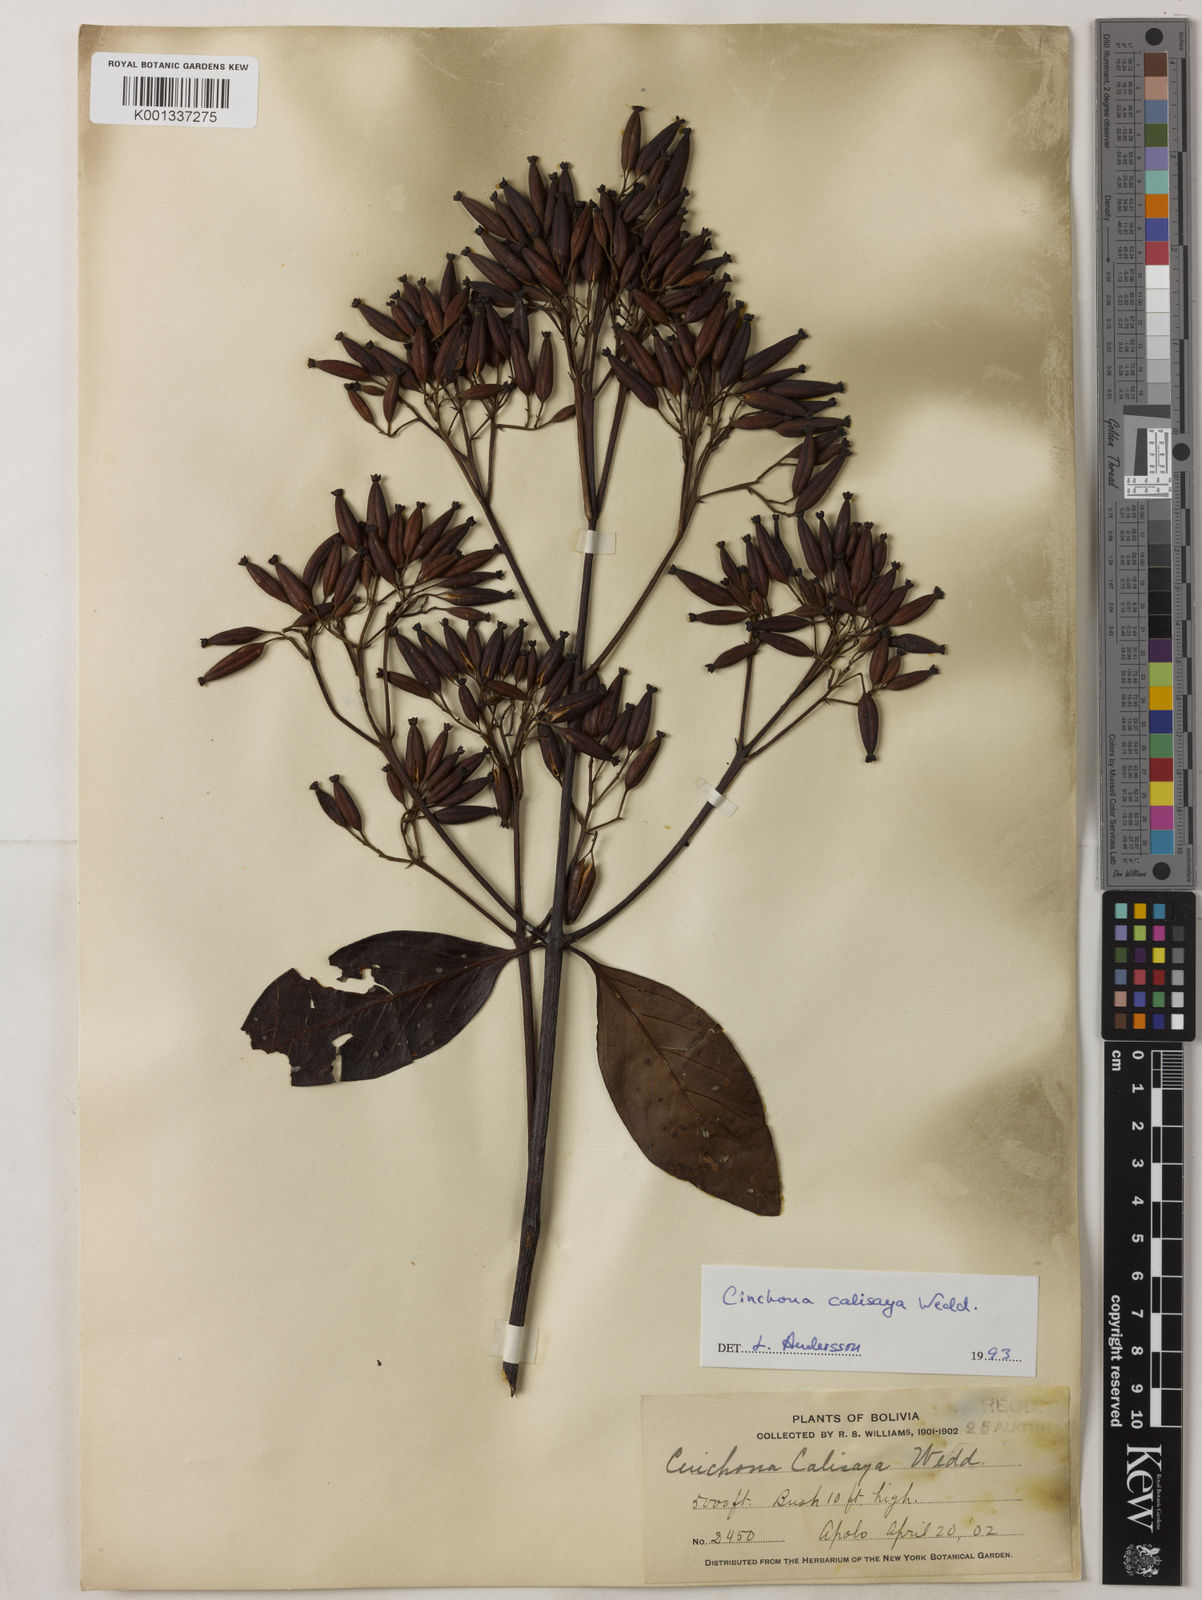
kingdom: Plantae
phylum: Tracheophyta
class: Magnoliopsida
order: Gentianales
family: Rubiaceae
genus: Cinchona
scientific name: Cinchona calisaya
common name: Ledgerbark
